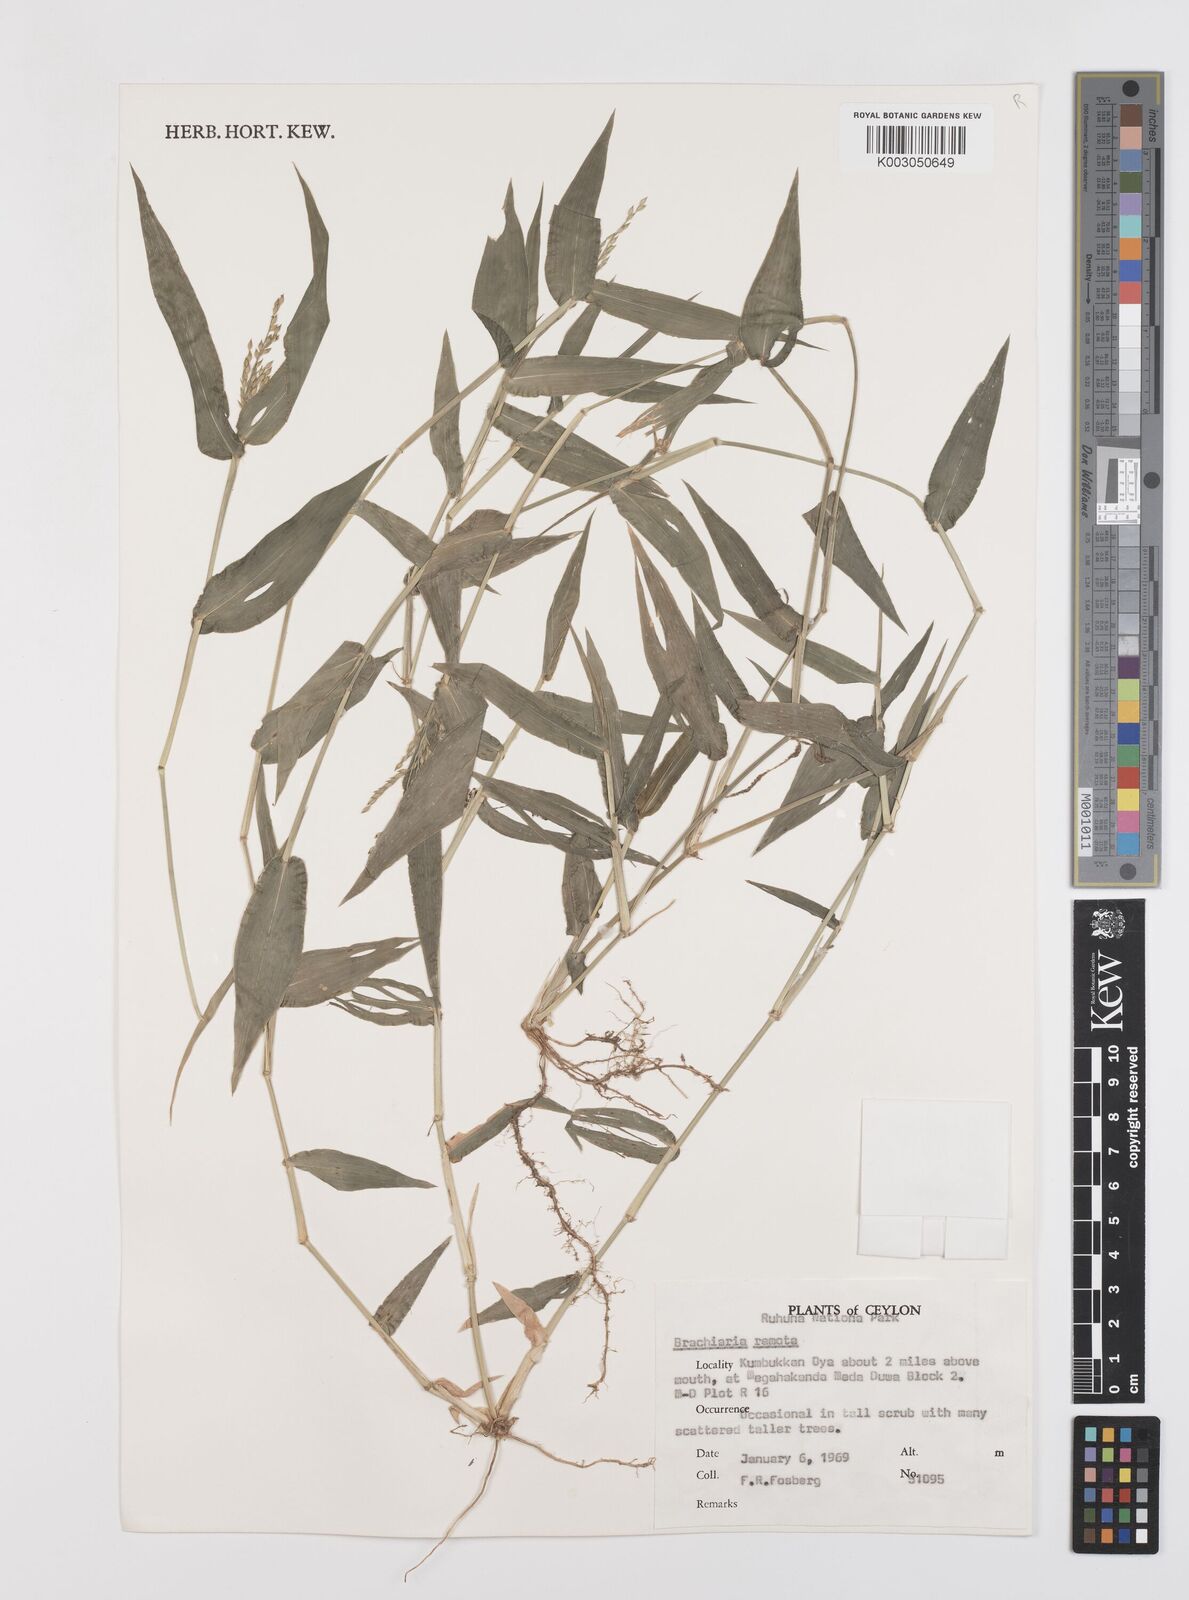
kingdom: Plantae
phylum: Tracheophyta
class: Liliopsida
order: Poales
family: Poaceae
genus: Urochloa
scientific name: Urochloa Brachiaria remota
